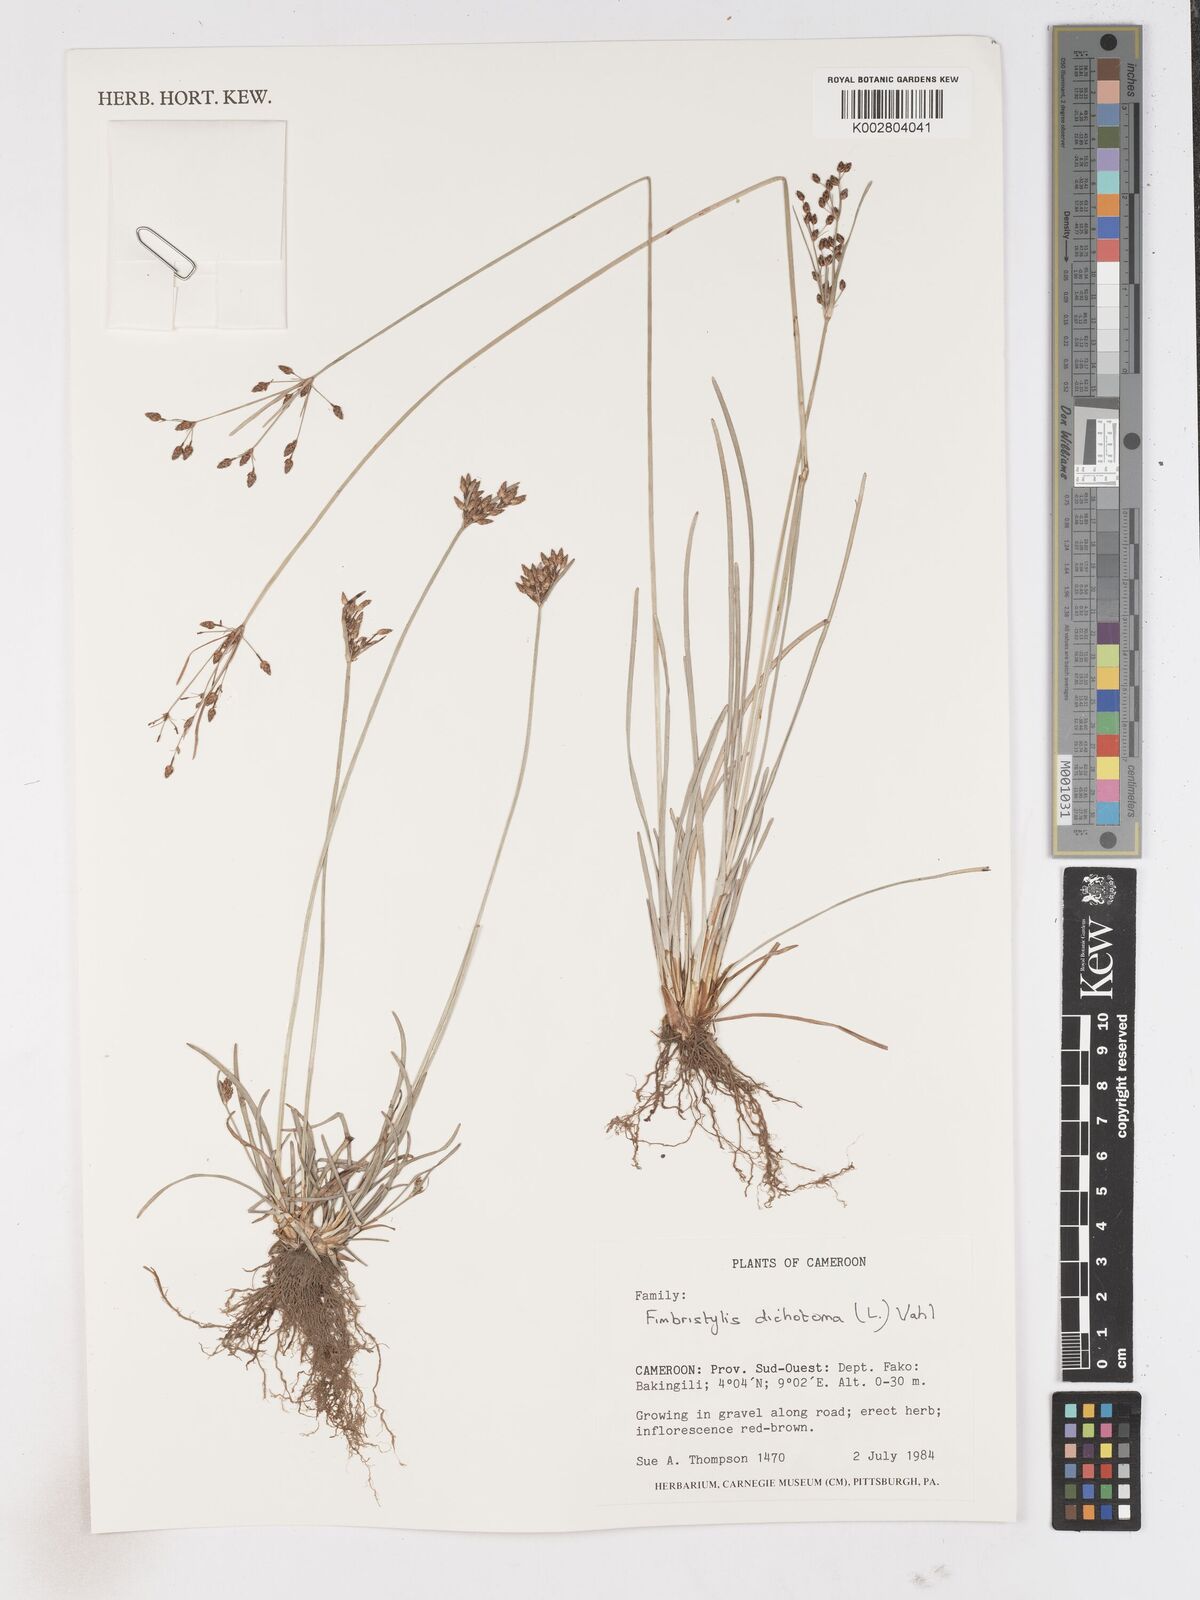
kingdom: Plantae
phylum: Tracheophyta
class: Liliopsida
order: Poales
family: Cyperaceae
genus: Fimbristylis
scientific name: Fimbristylis dichotoma
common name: Forked fimbry
